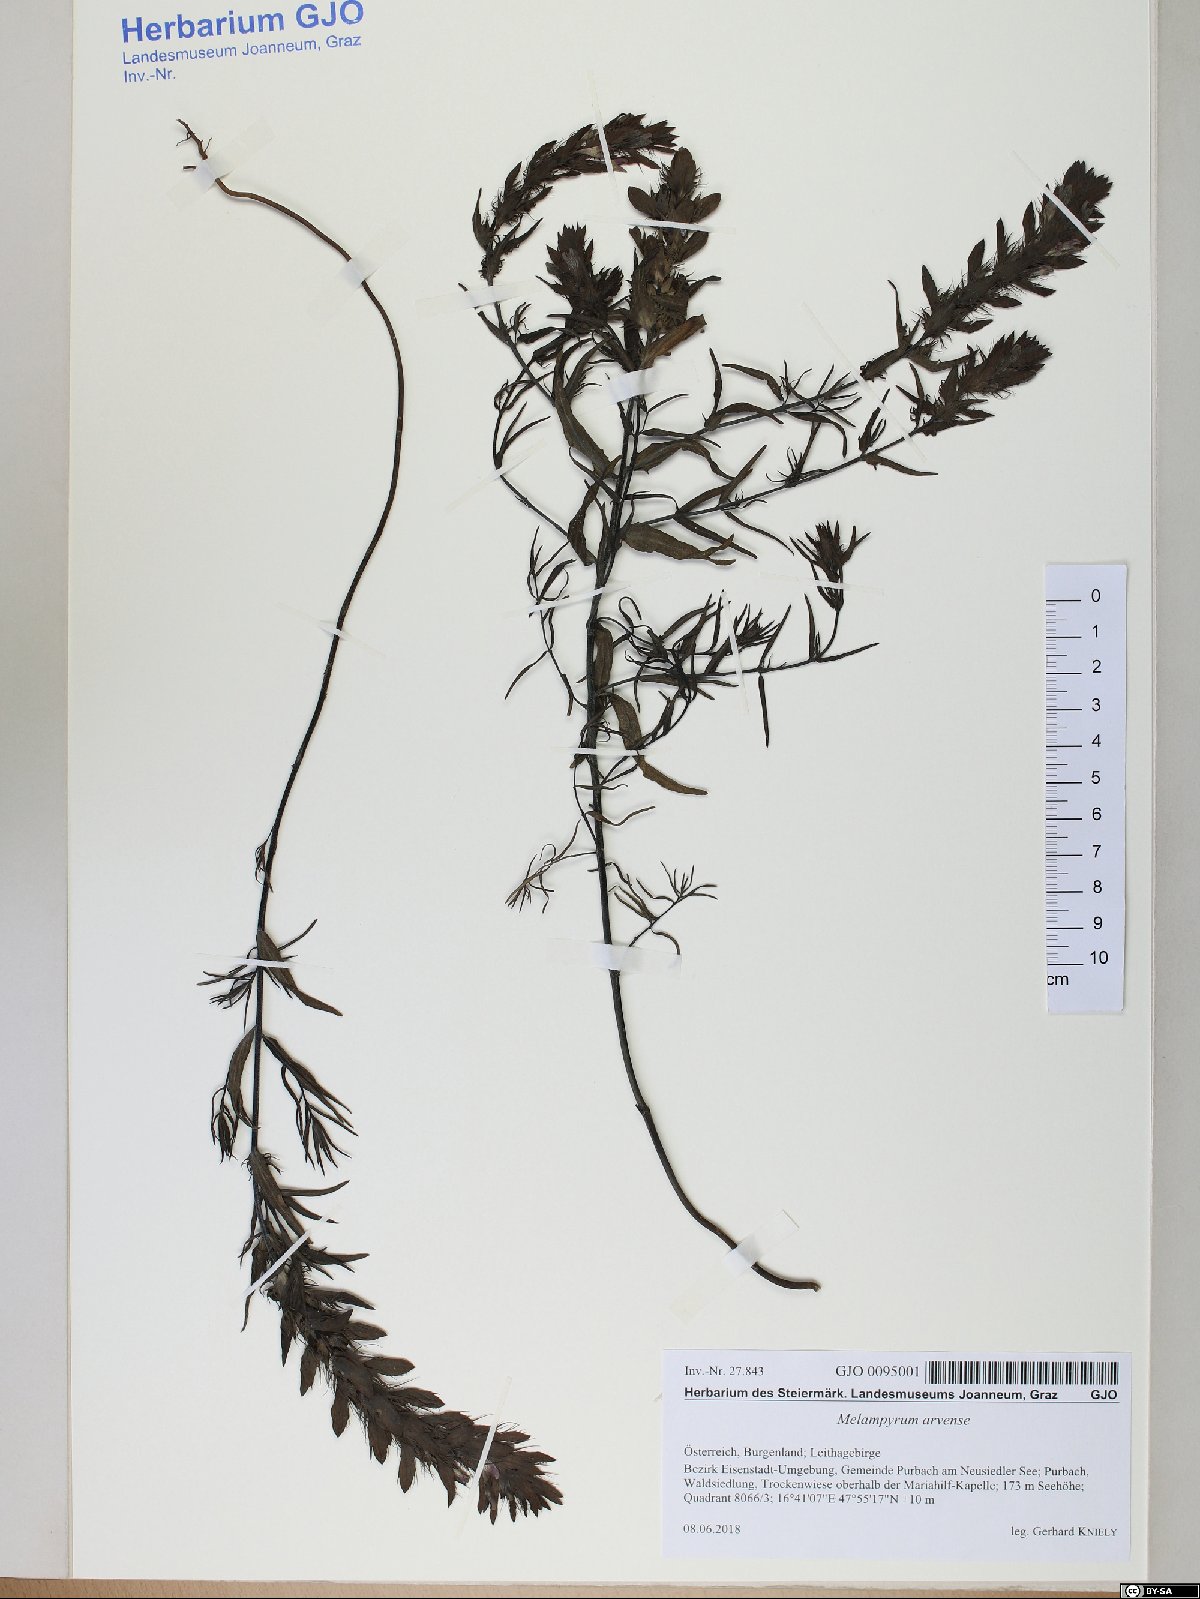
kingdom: Plantae
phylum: Tracheophyta
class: Magnoliopsida
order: Lamiales
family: Orobanchaceae
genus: Melampyrum
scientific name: Melampyrum arvense
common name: Field cow-wheat
